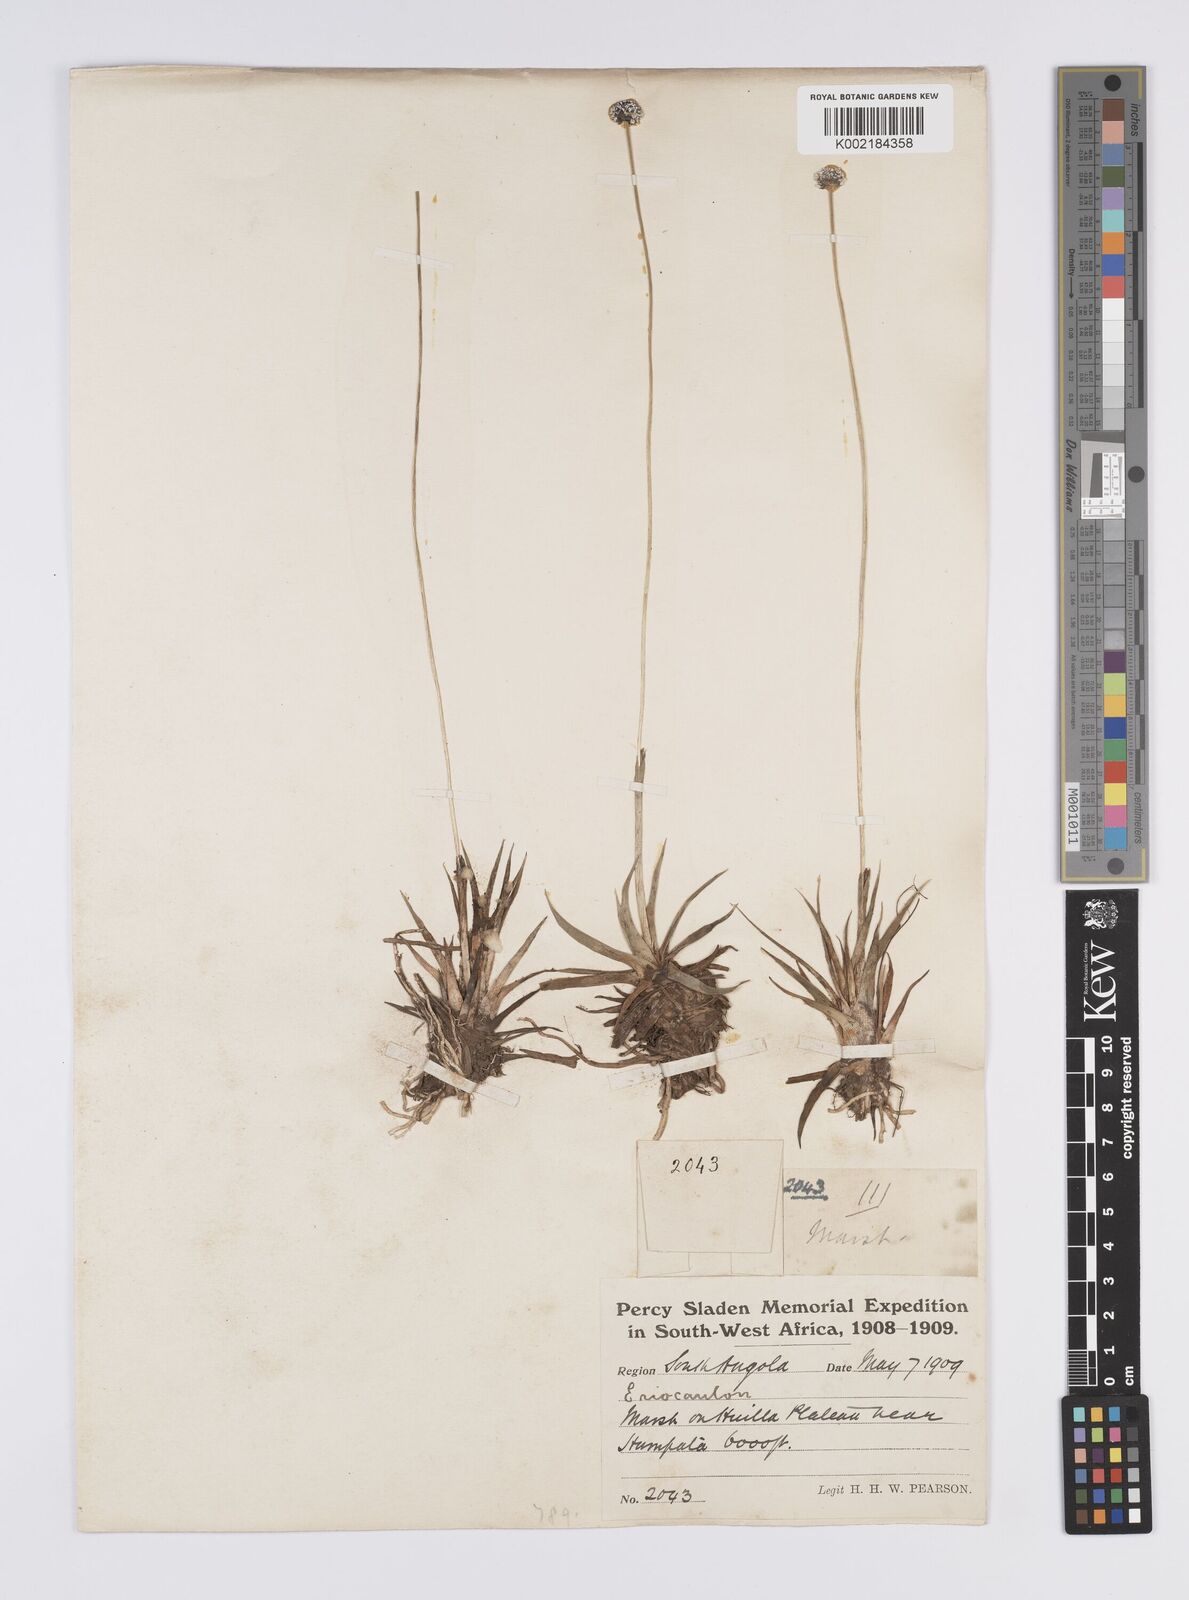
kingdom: Plantae
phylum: Tracheophyta
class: Liliopsida
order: Poales
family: Eriocaulaceae
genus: Eriocaulon
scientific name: Eriocaulon pictum
